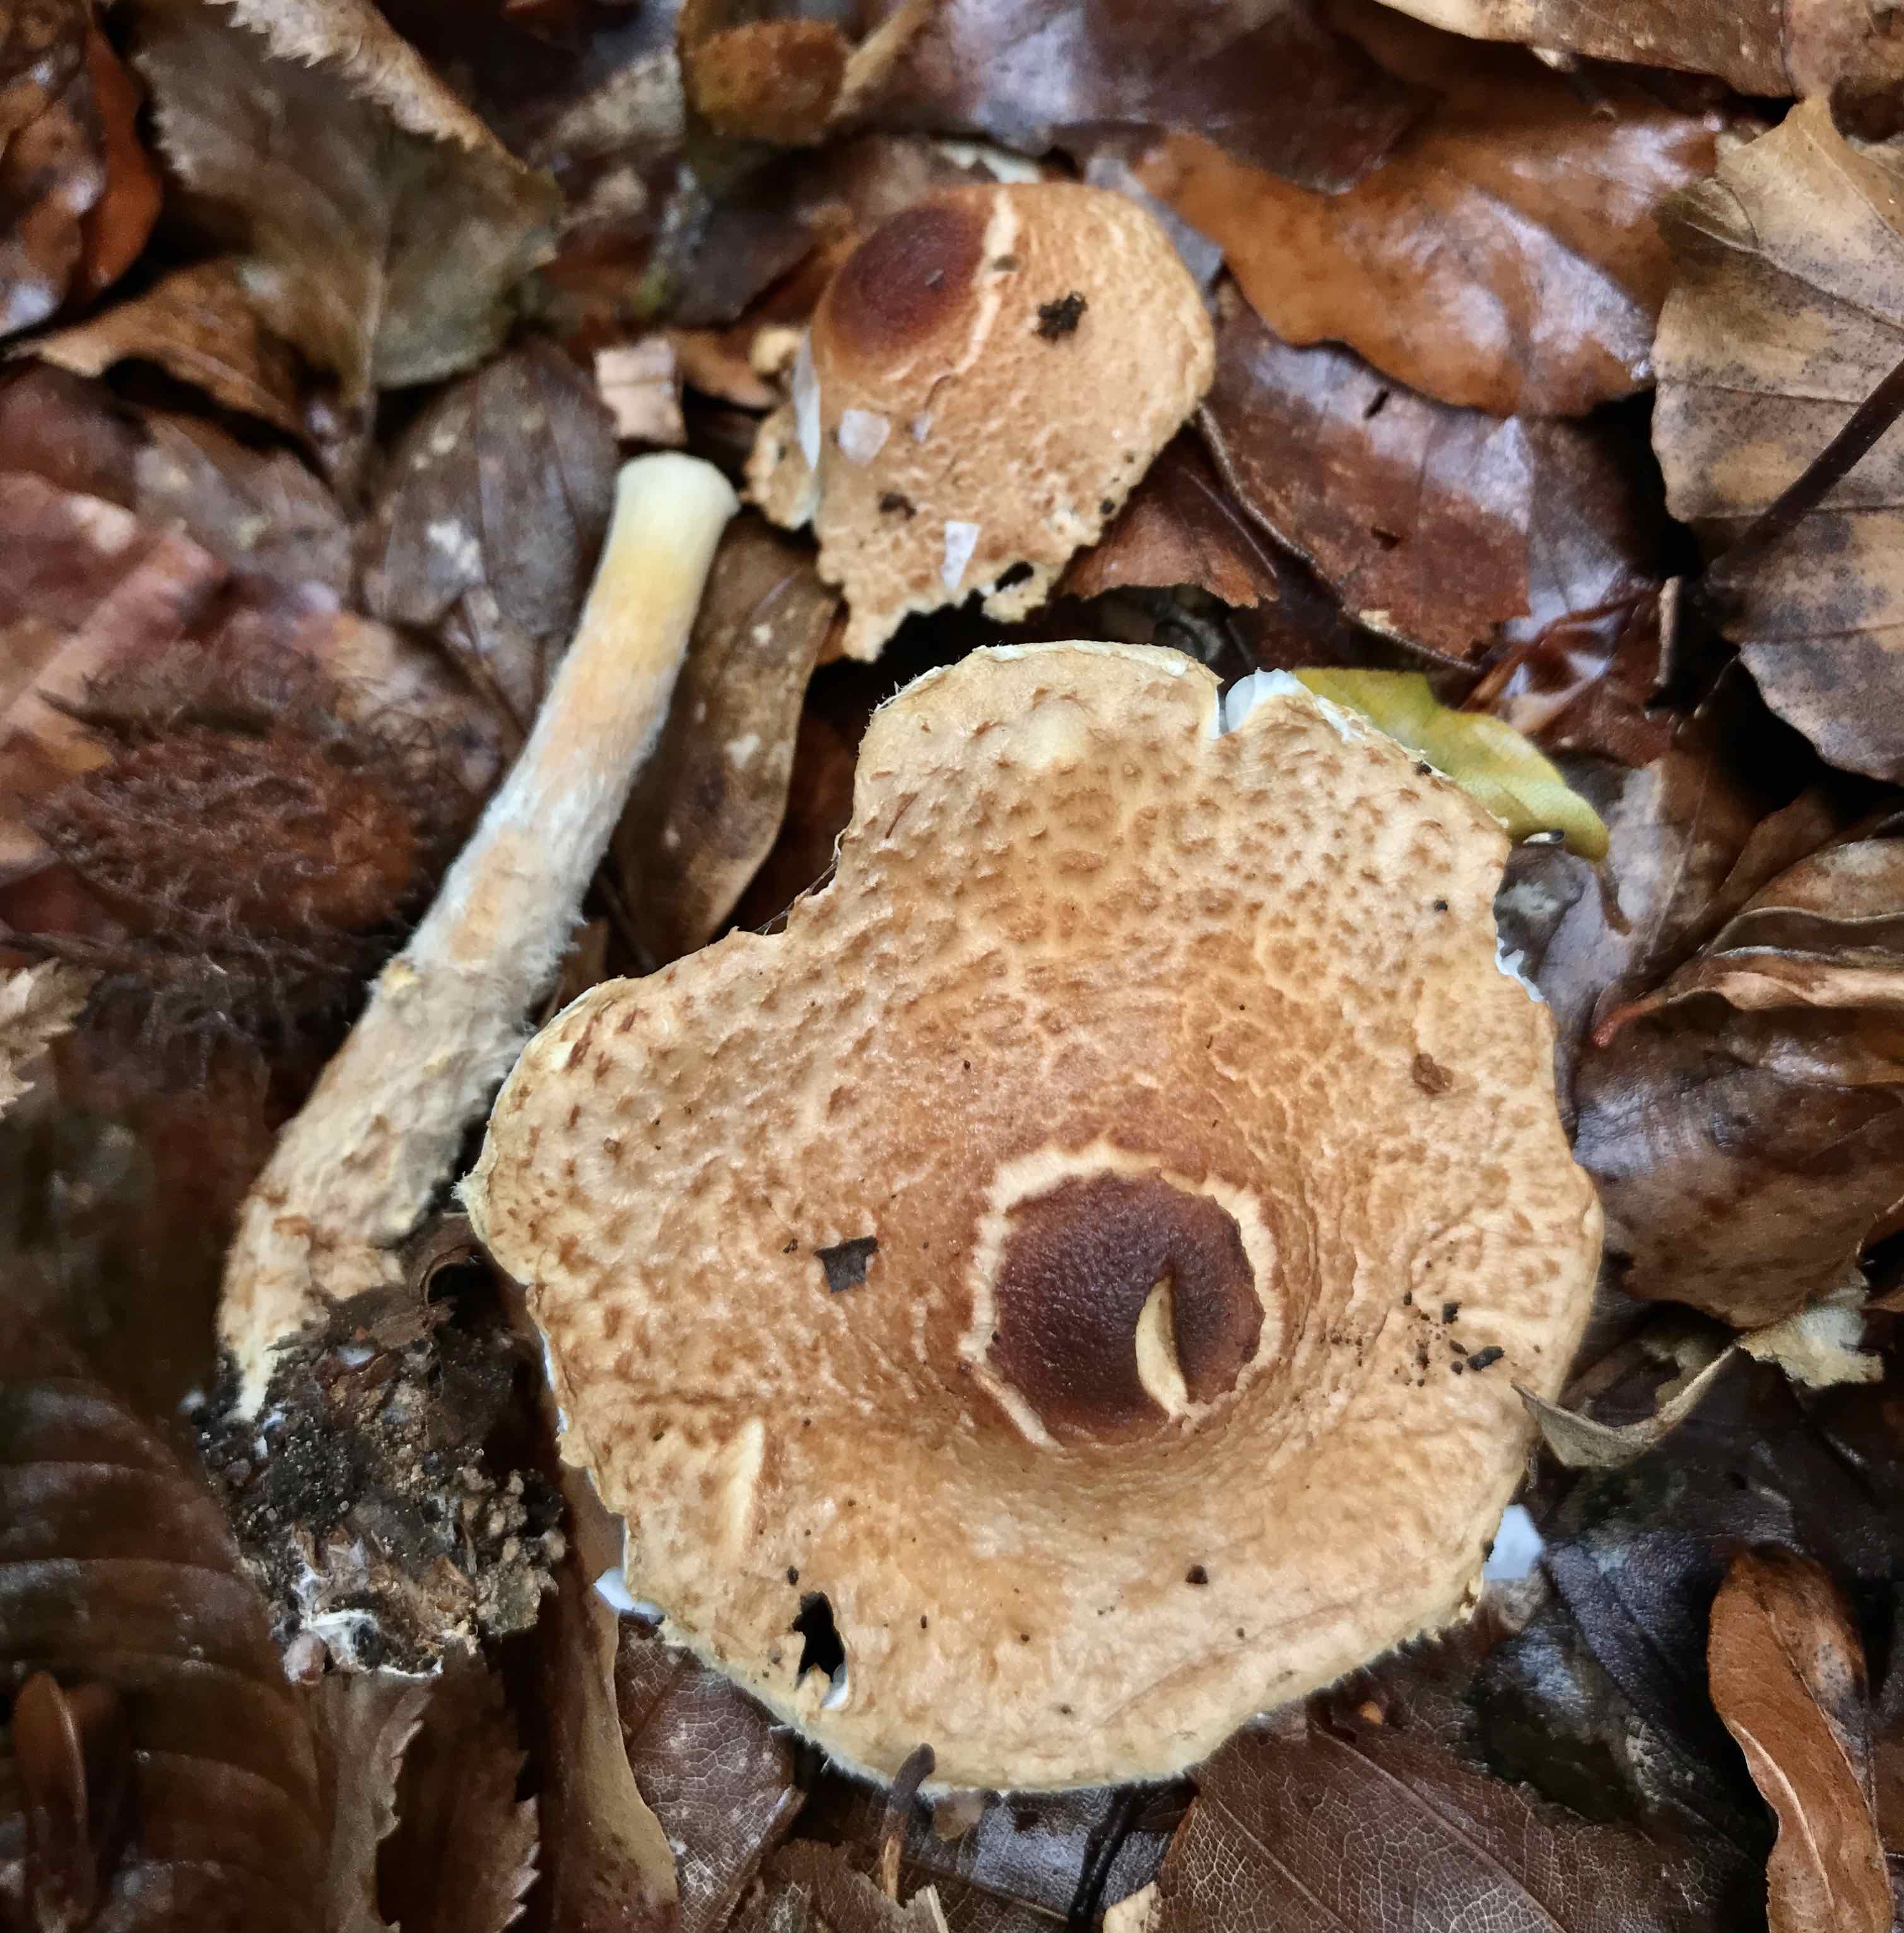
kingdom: Fungi
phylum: Basidiomycota
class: Agaricomycetes
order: Agaricales
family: Agaricaceae
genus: Lepiota
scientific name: Lepiota magnispora
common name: gulfnugget parasolhat
